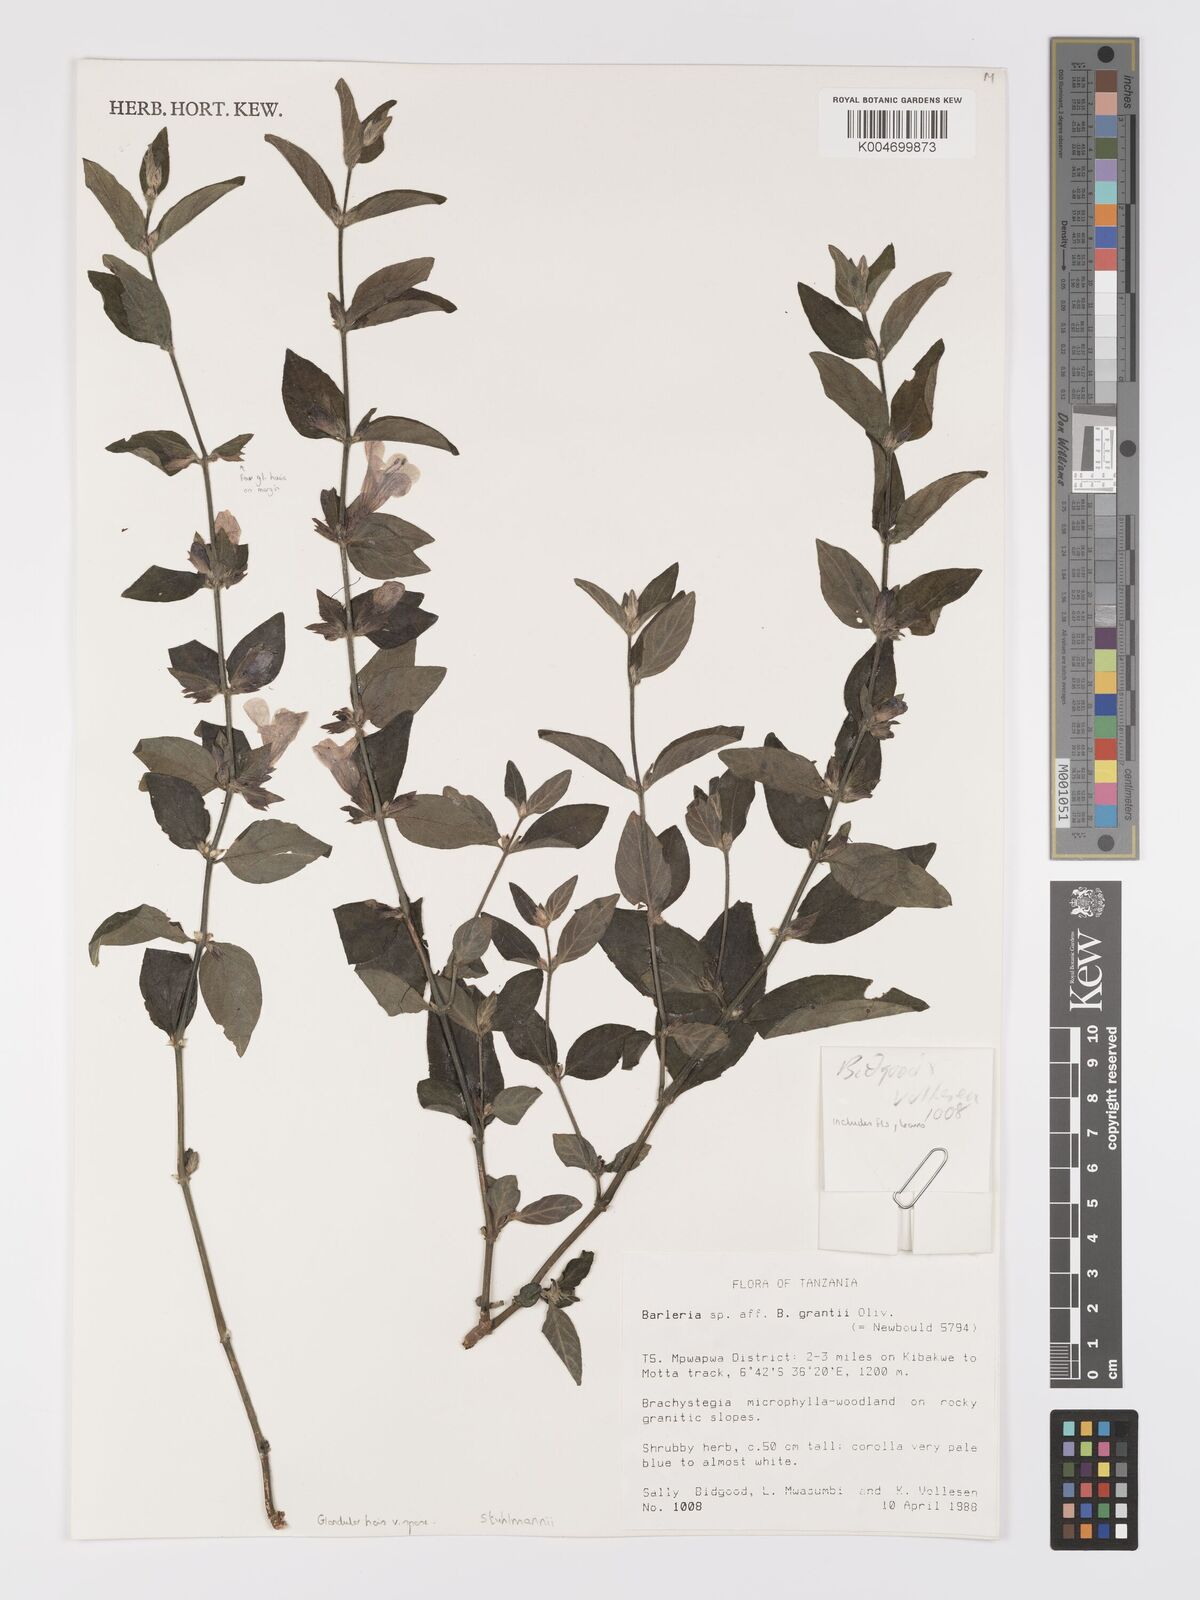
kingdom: Plantae
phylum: Tracheophyta
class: Magnoliopsida
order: Lamiales
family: Acanthaceae
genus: Barleria
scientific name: Barleria ventricosa
